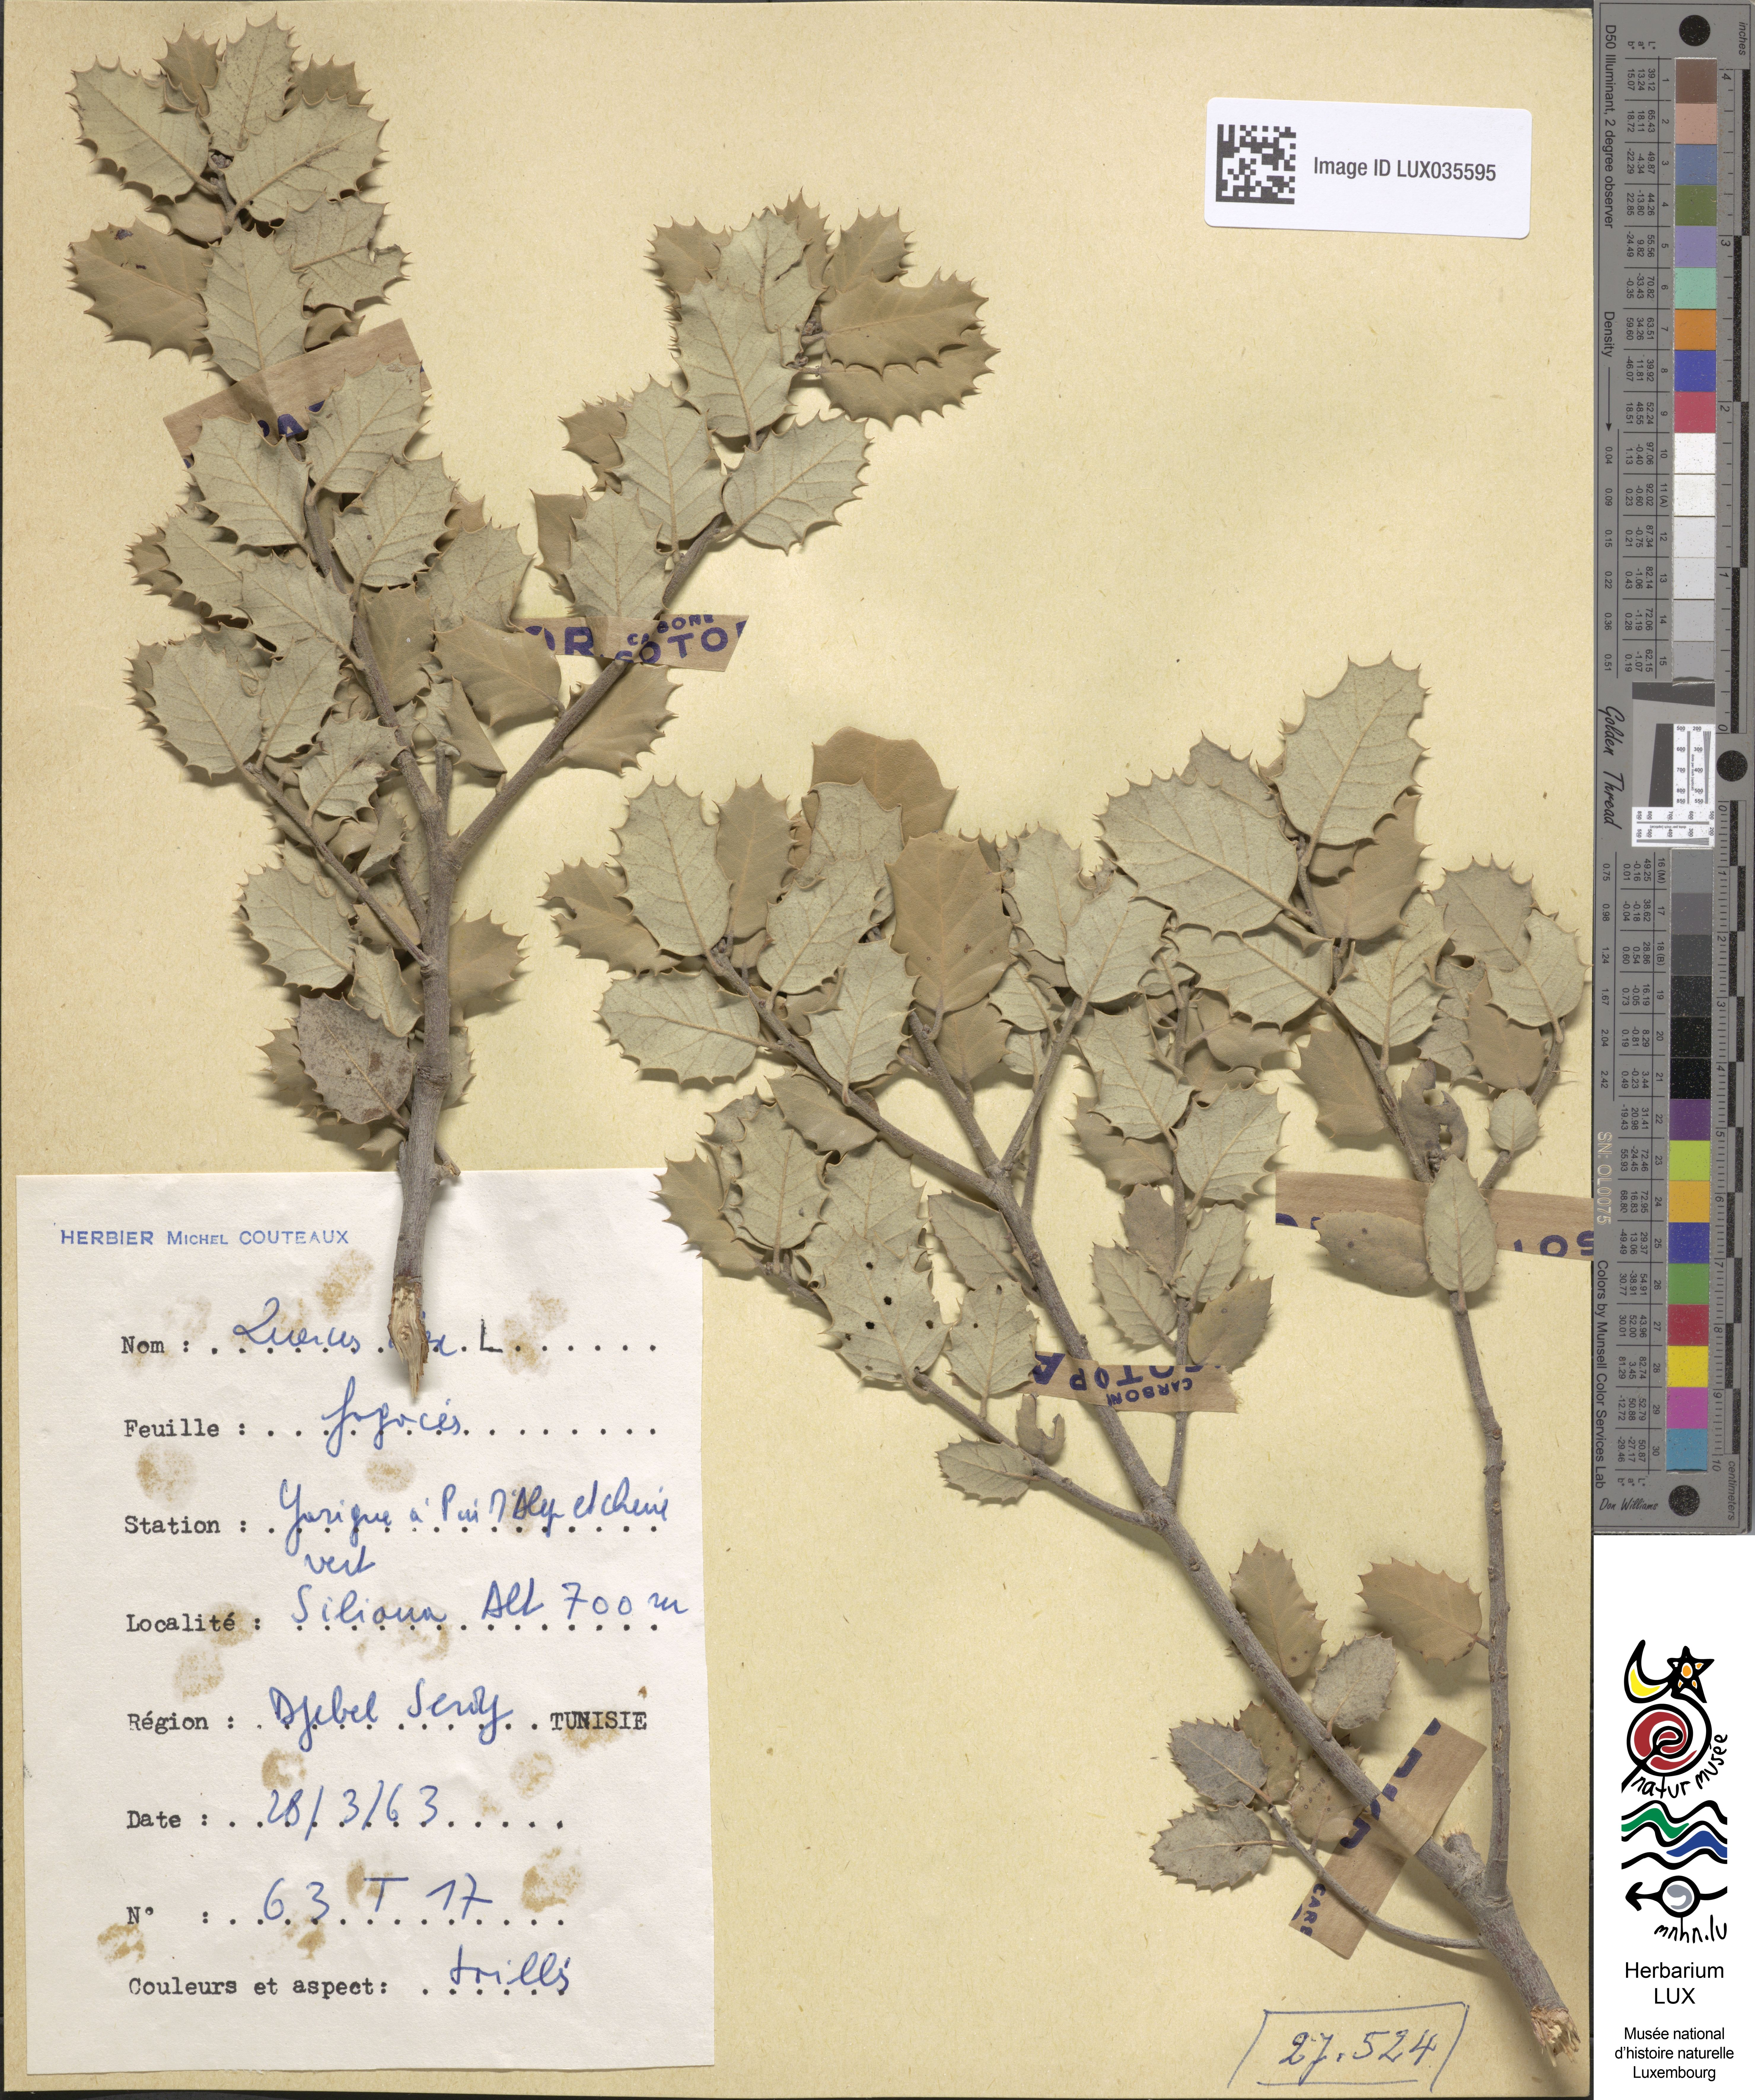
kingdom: Plantae
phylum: Tracheophyta
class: Magnoliopsida
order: Fagales
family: Fagaceae
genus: Quercus
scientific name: Quercus ilex
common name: Evergreen oak
